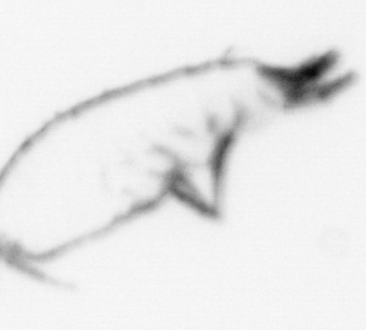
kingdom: Animalia
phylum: Arthropoda
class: Copepoda
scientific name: Copepoda
